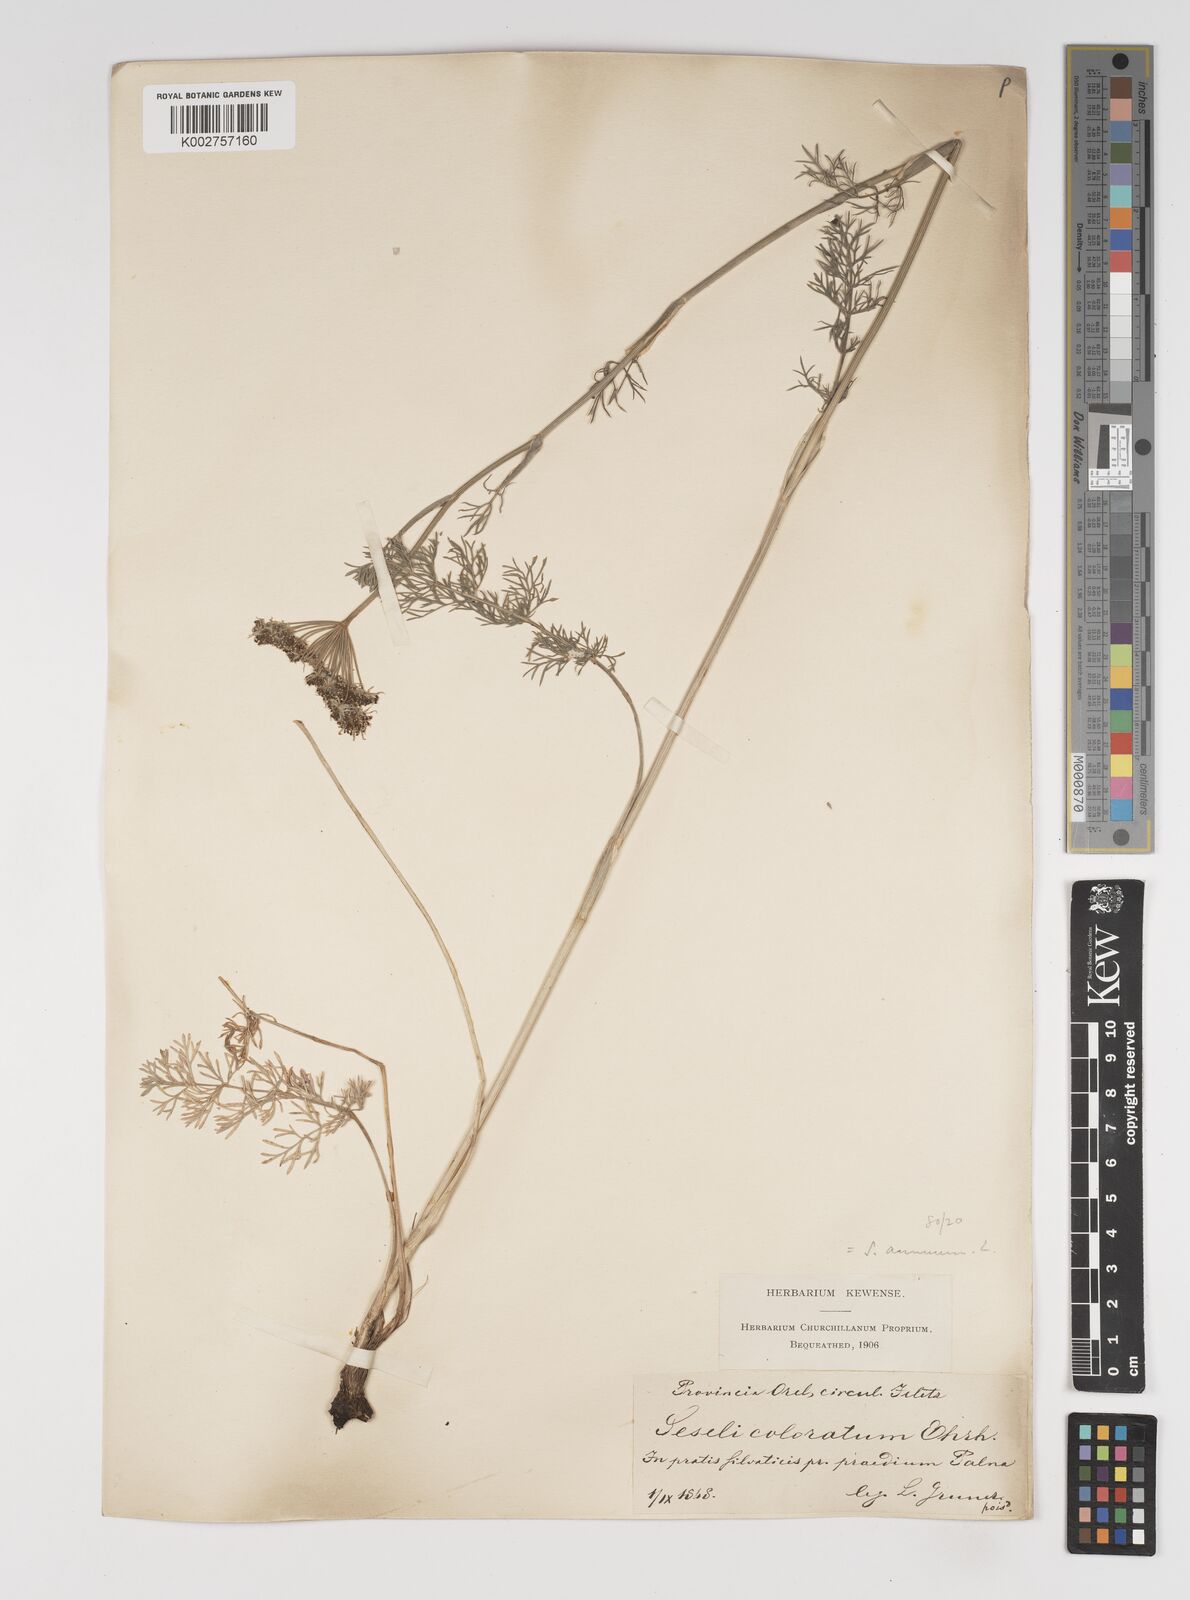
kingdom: Plantae
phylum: Tracheophyta
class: Magnoliopsida
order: Apiales
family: Apiaceae
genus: Seseli
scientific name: Seseli annuum
